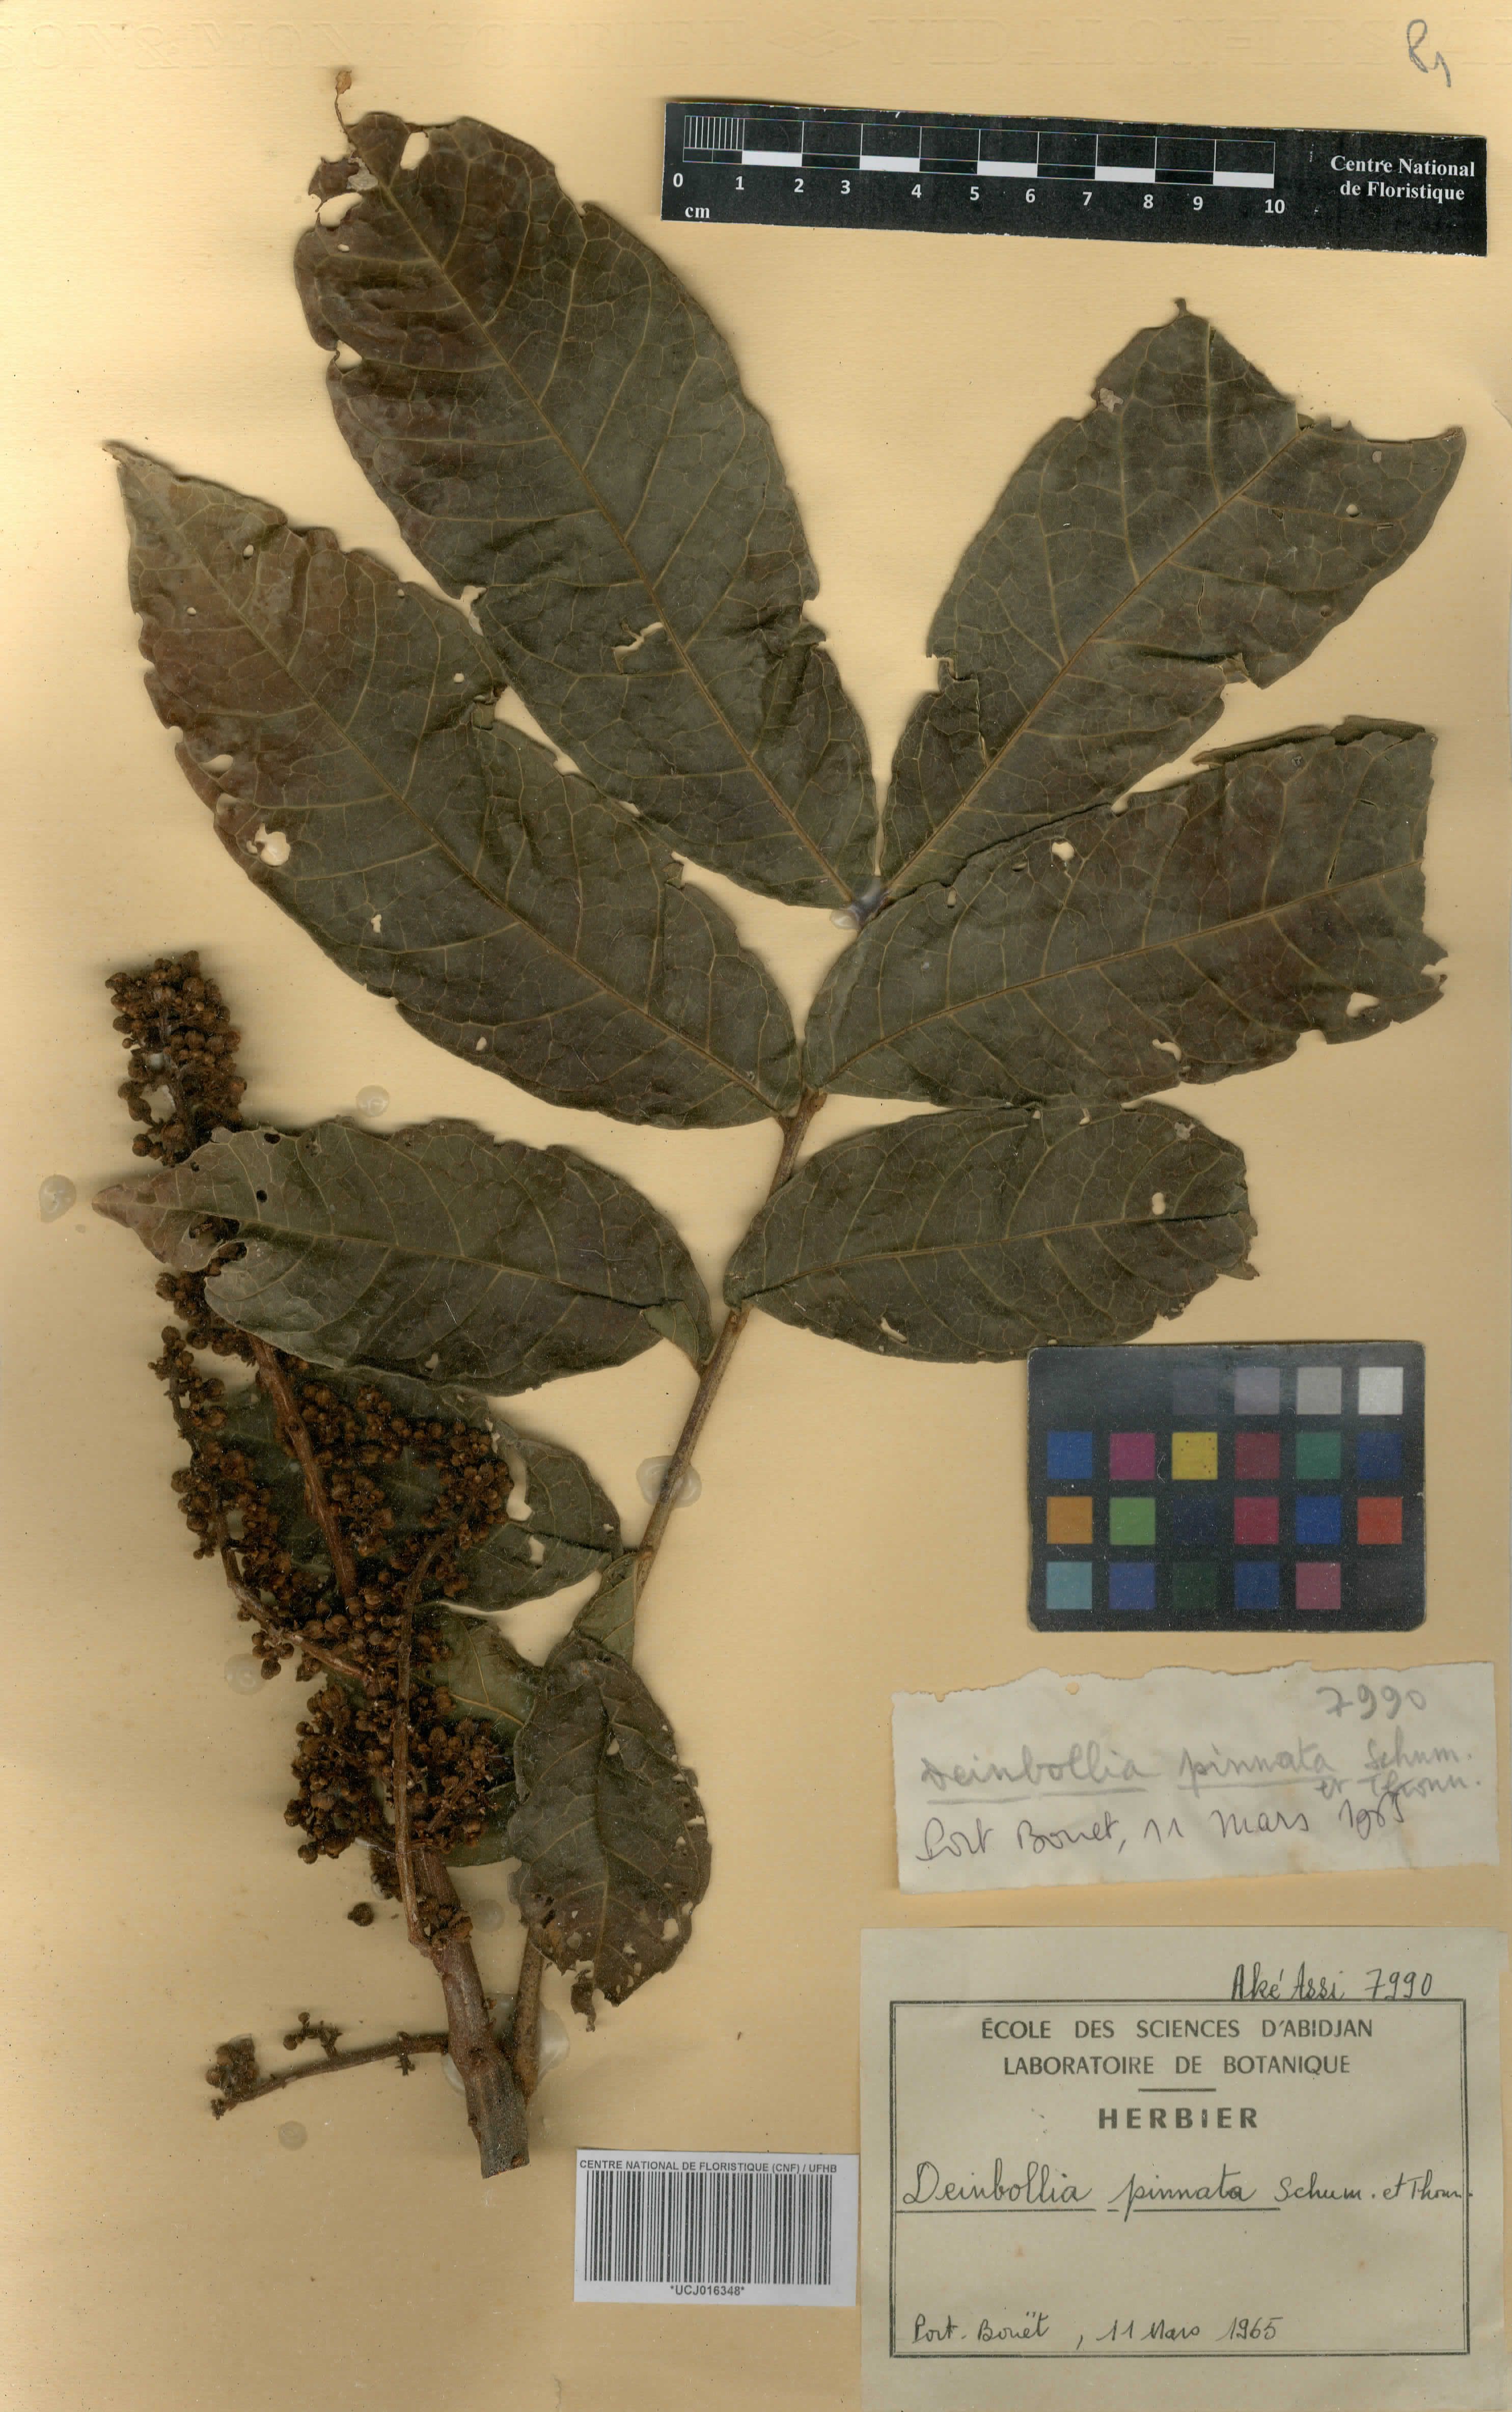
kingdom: Plantae
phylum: Tracheophyta
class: Magnoliopsida
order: Sapindales
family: Sapindaceae
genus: Deinbollia
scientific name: Deinbollia pinnata
